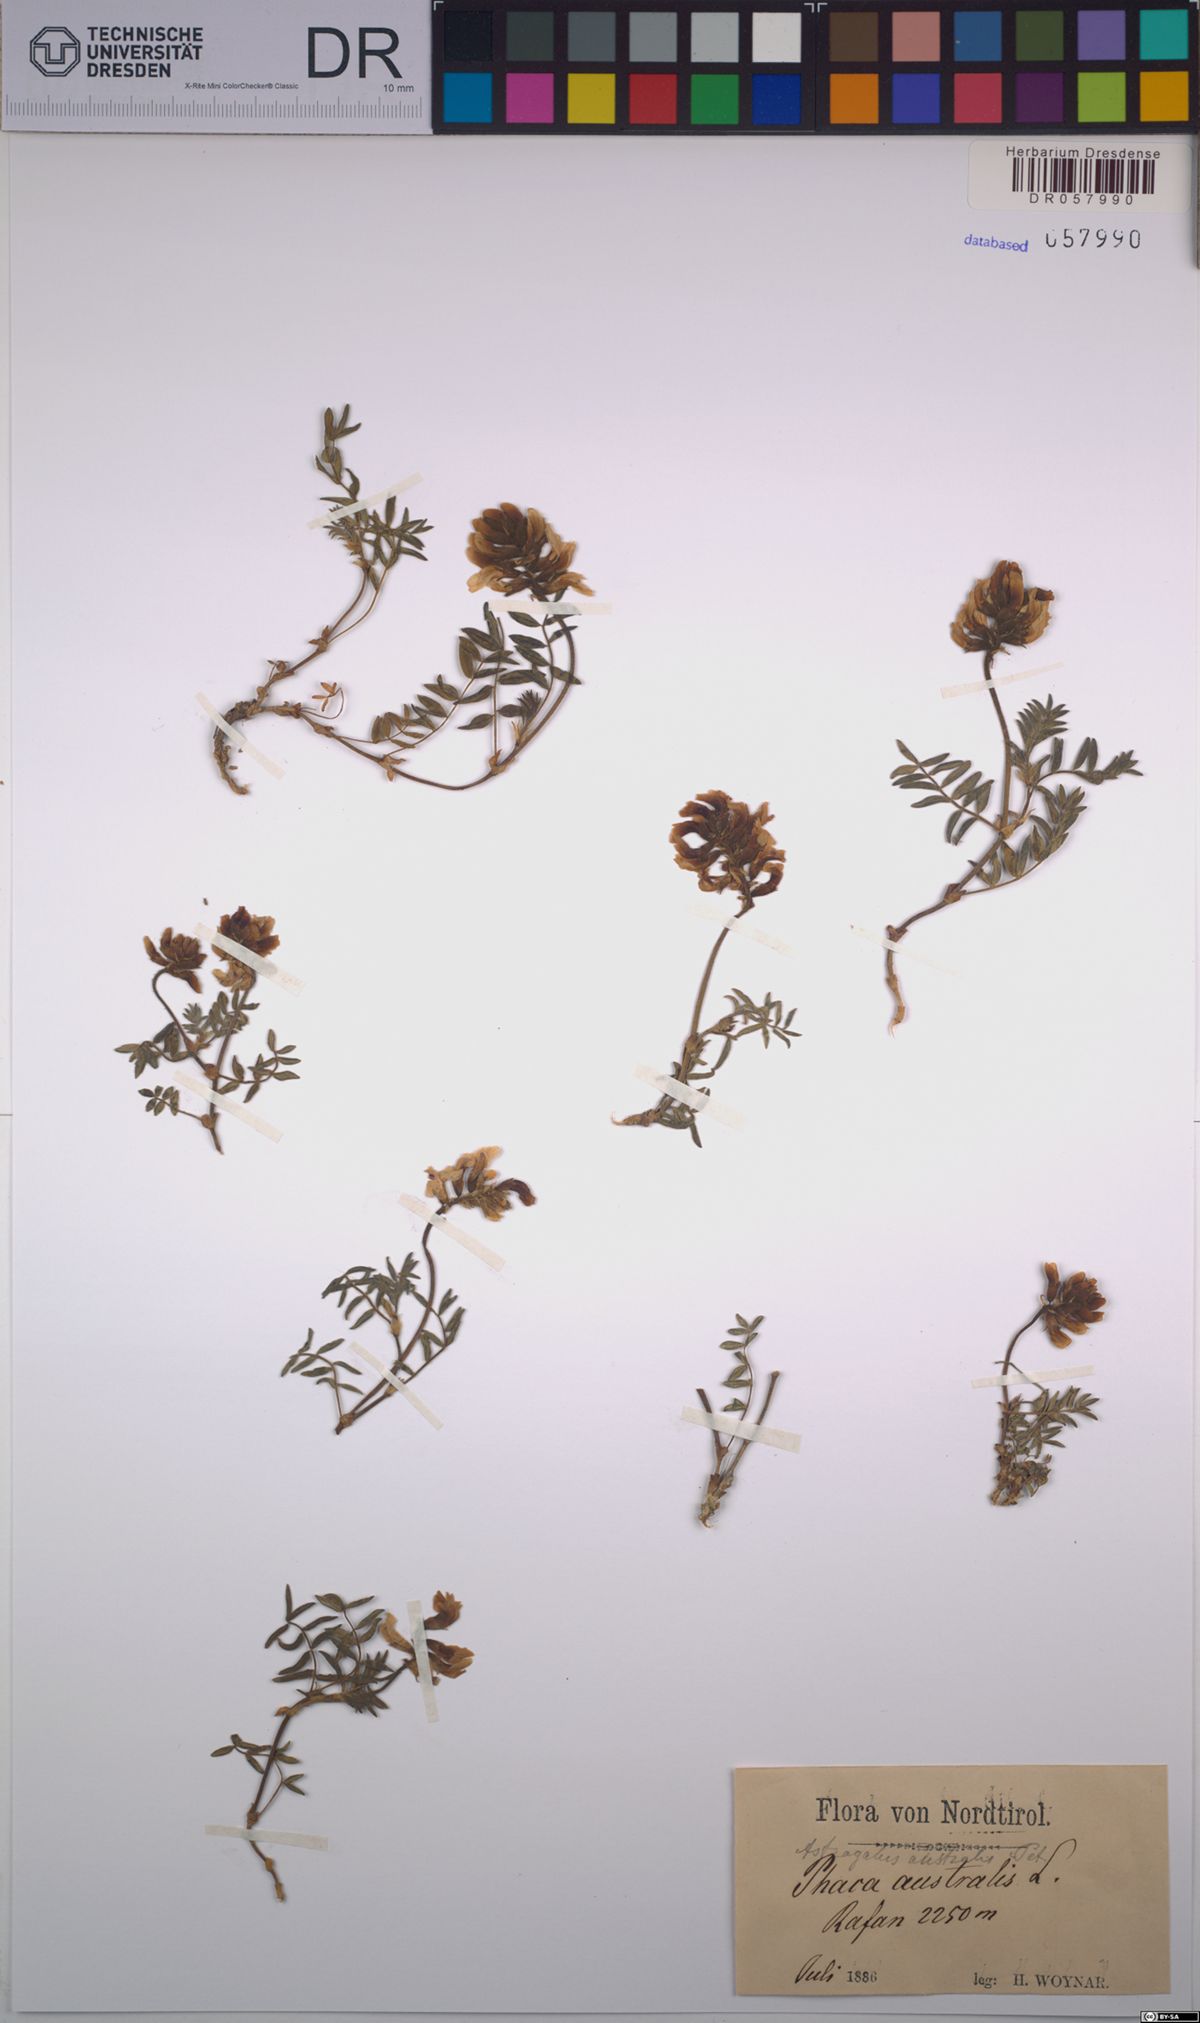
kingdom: Plantae
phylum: Tracheophyta
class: Magnoliopsida
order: Fabales
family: Fabaceae
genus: Astragalus
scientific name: Astragalus australis
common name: Indian milk-vetch
